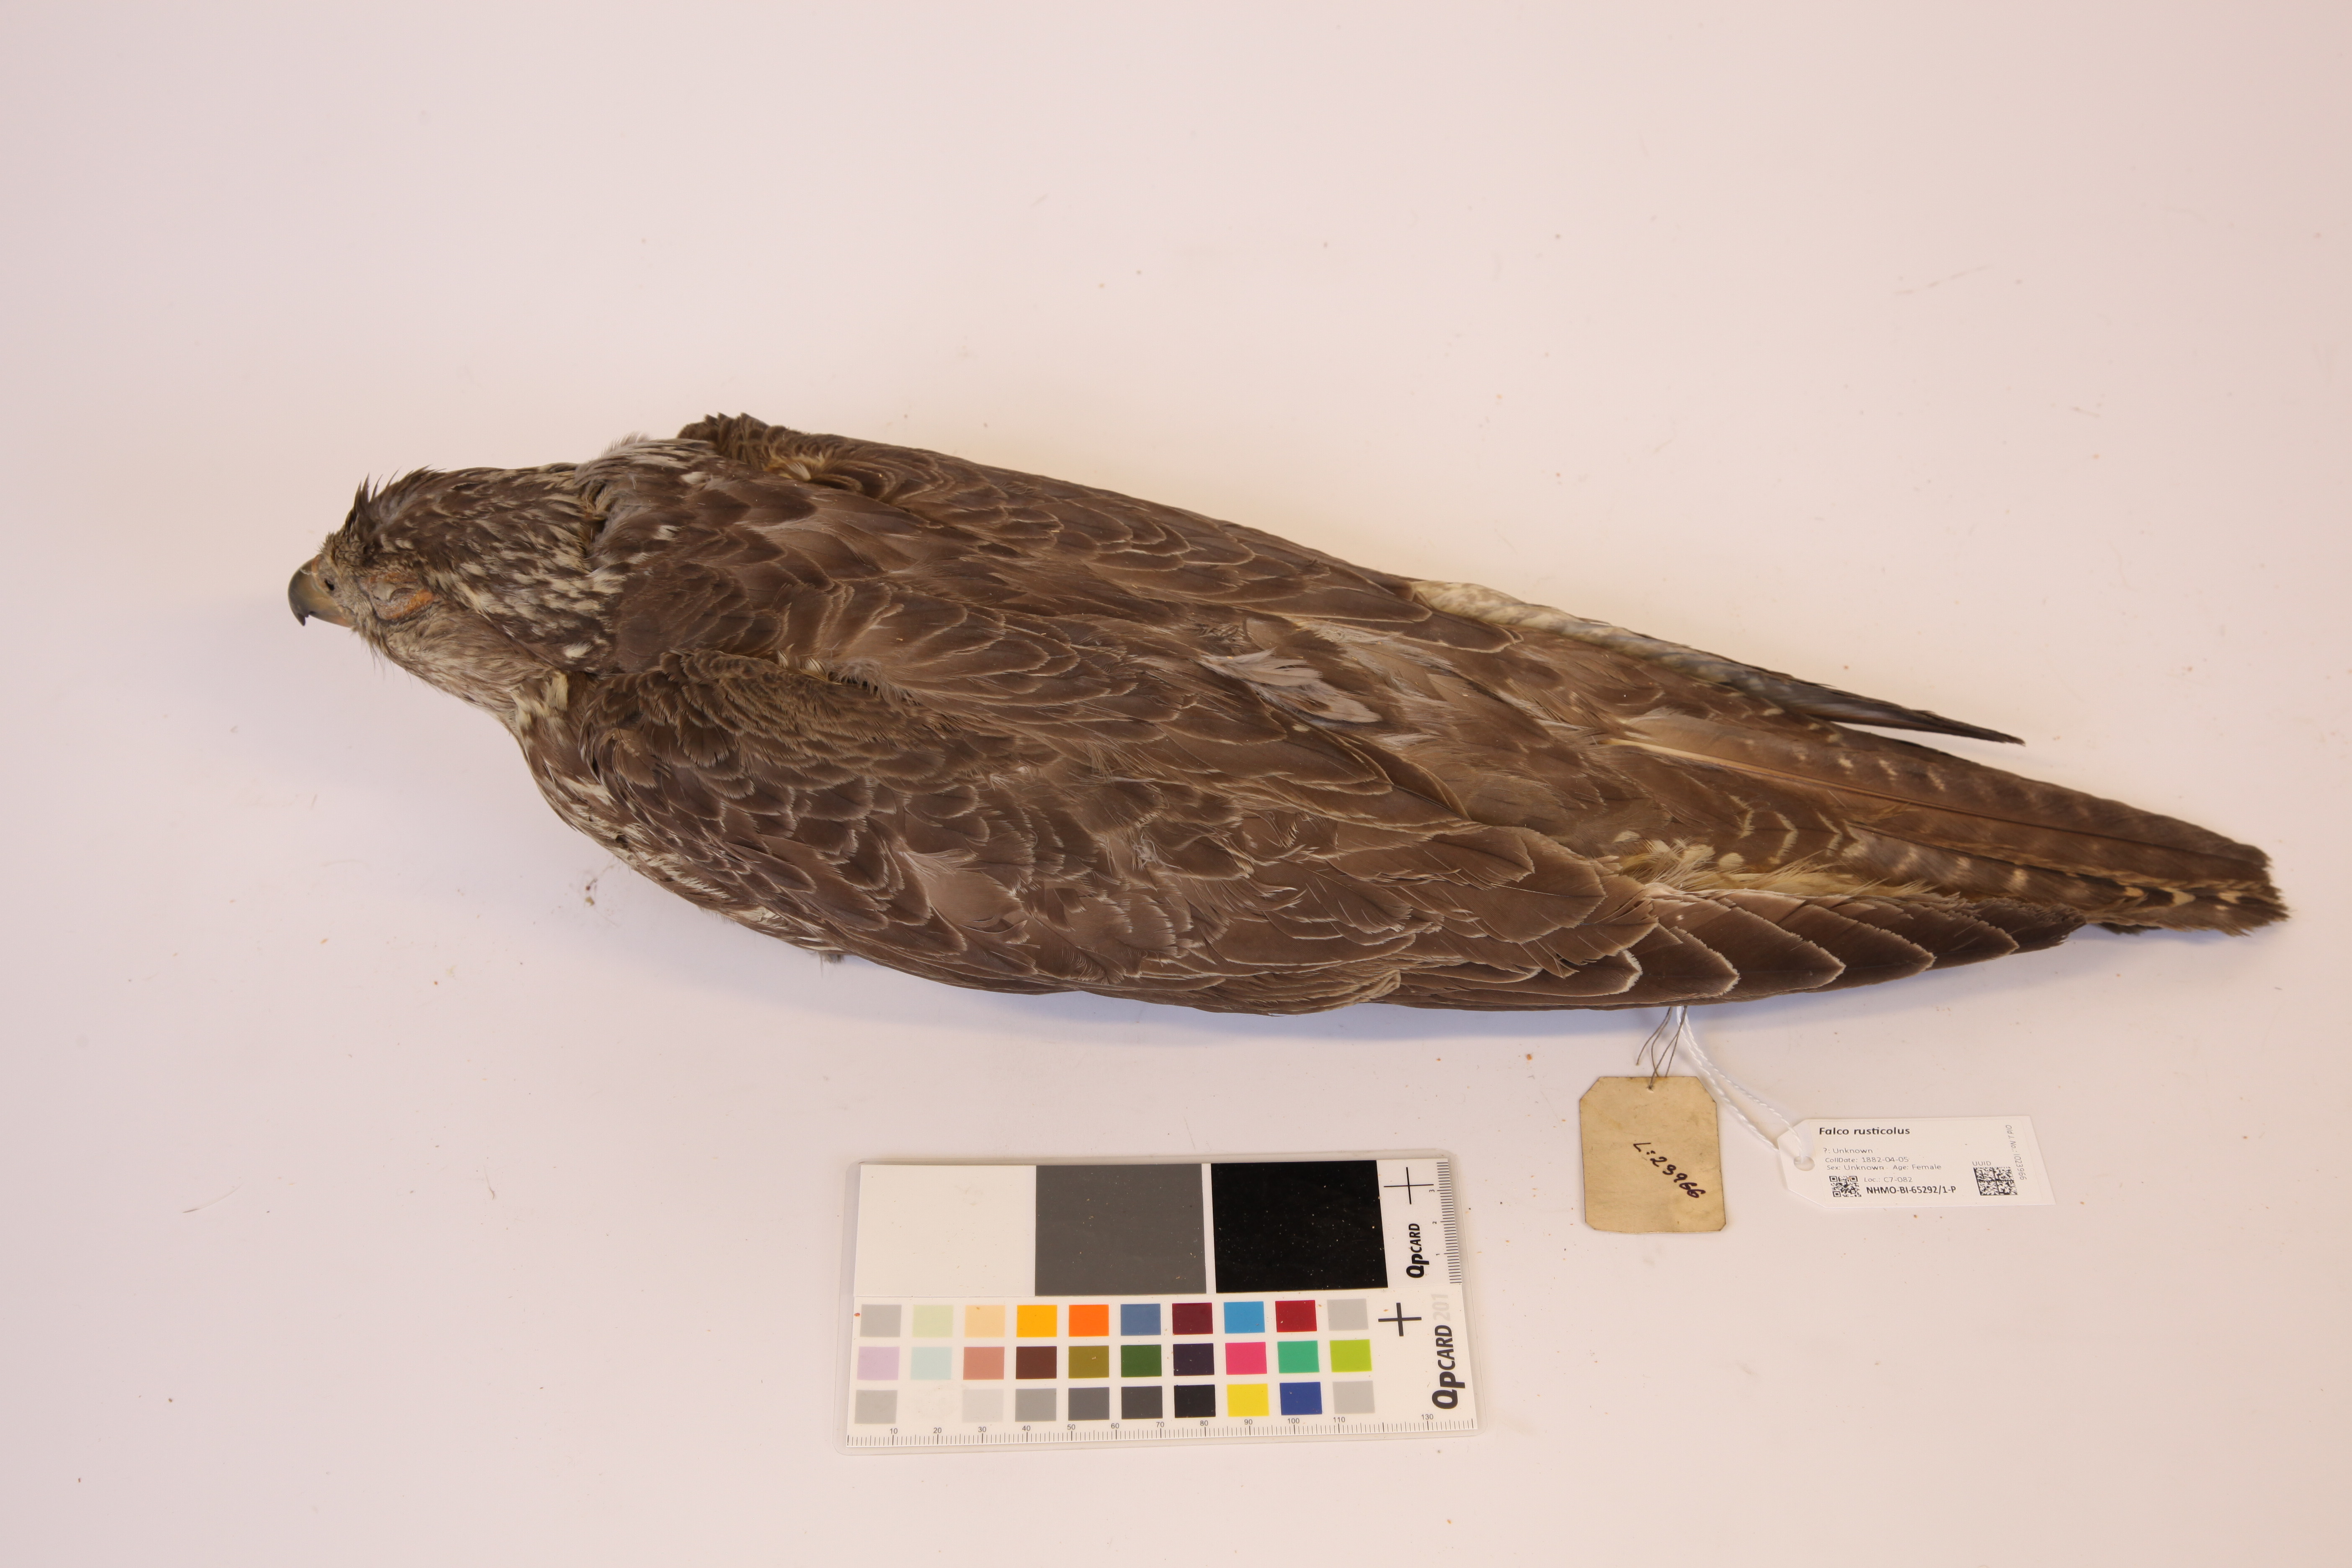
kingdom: Animalia
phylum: Chordata
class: Aves
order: Falconiformes
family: Falconidae
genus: Falco
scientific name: Falco rusticolus
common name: Gyrfalcon
